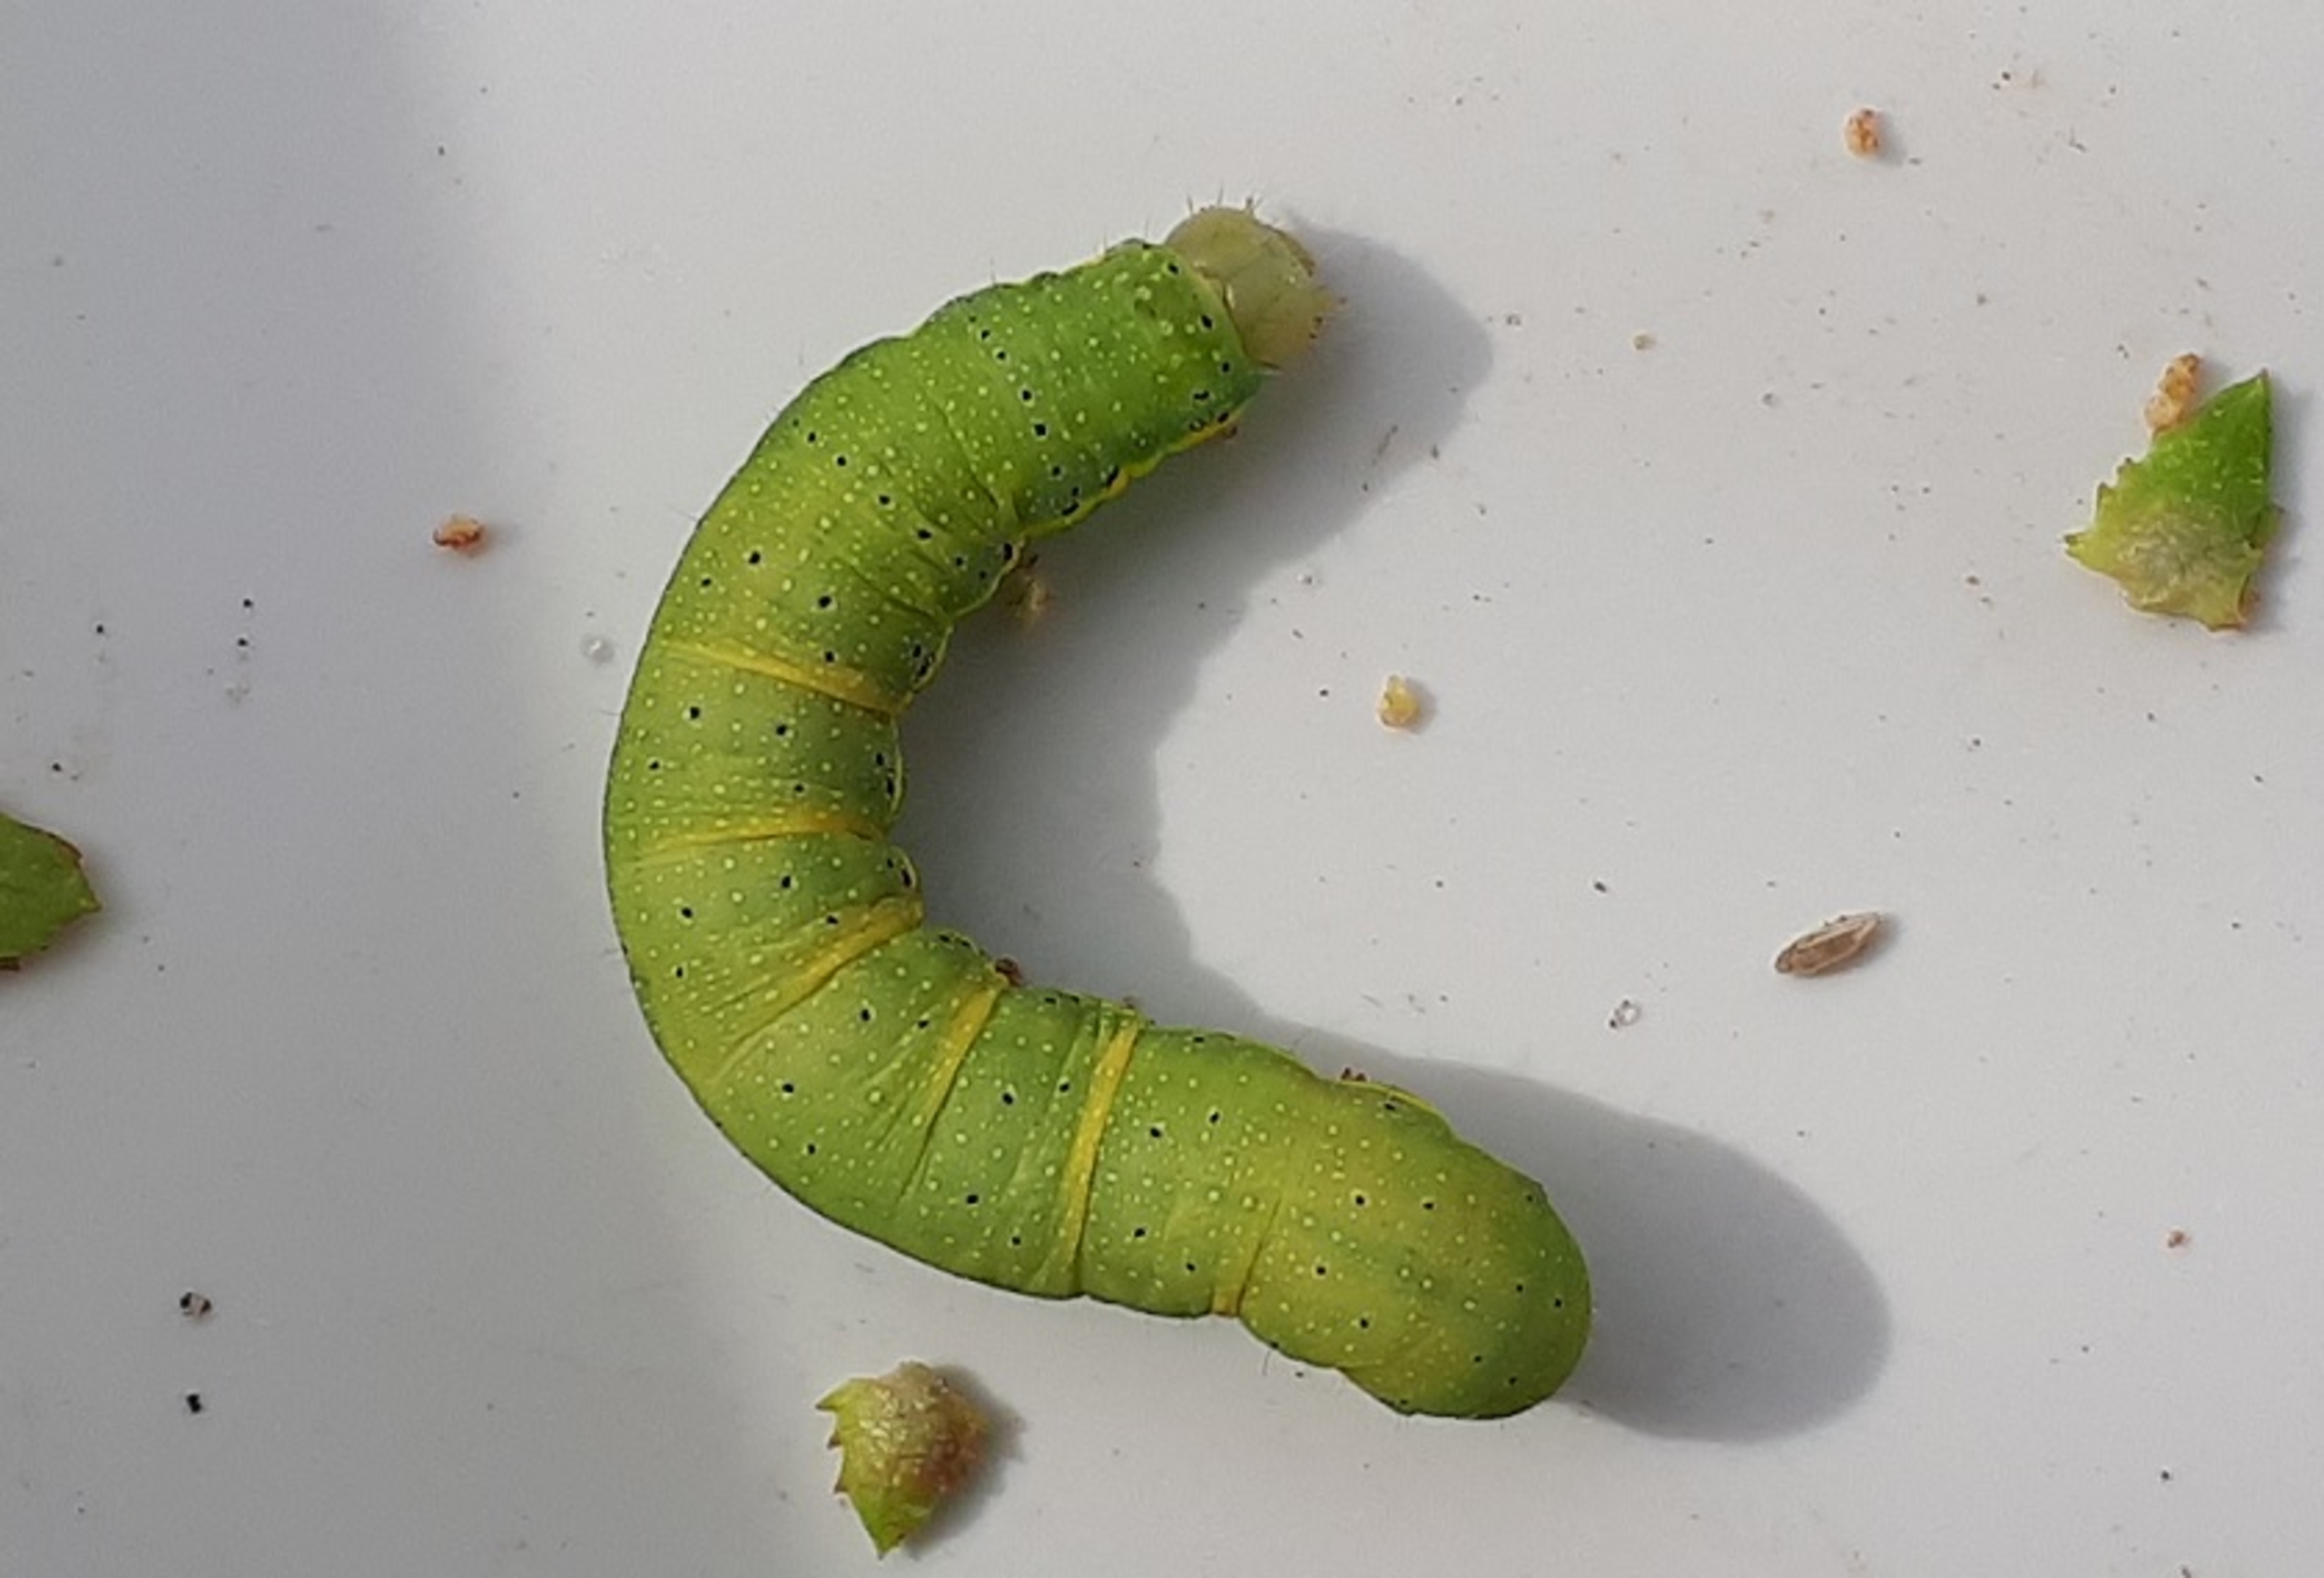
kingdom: Animalia
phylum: Arthropoda
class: Insecta
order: Lepidoptera
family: Noctuidae
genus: Lacanobia
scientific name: Lacanobia oleracea
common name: Haveugle
